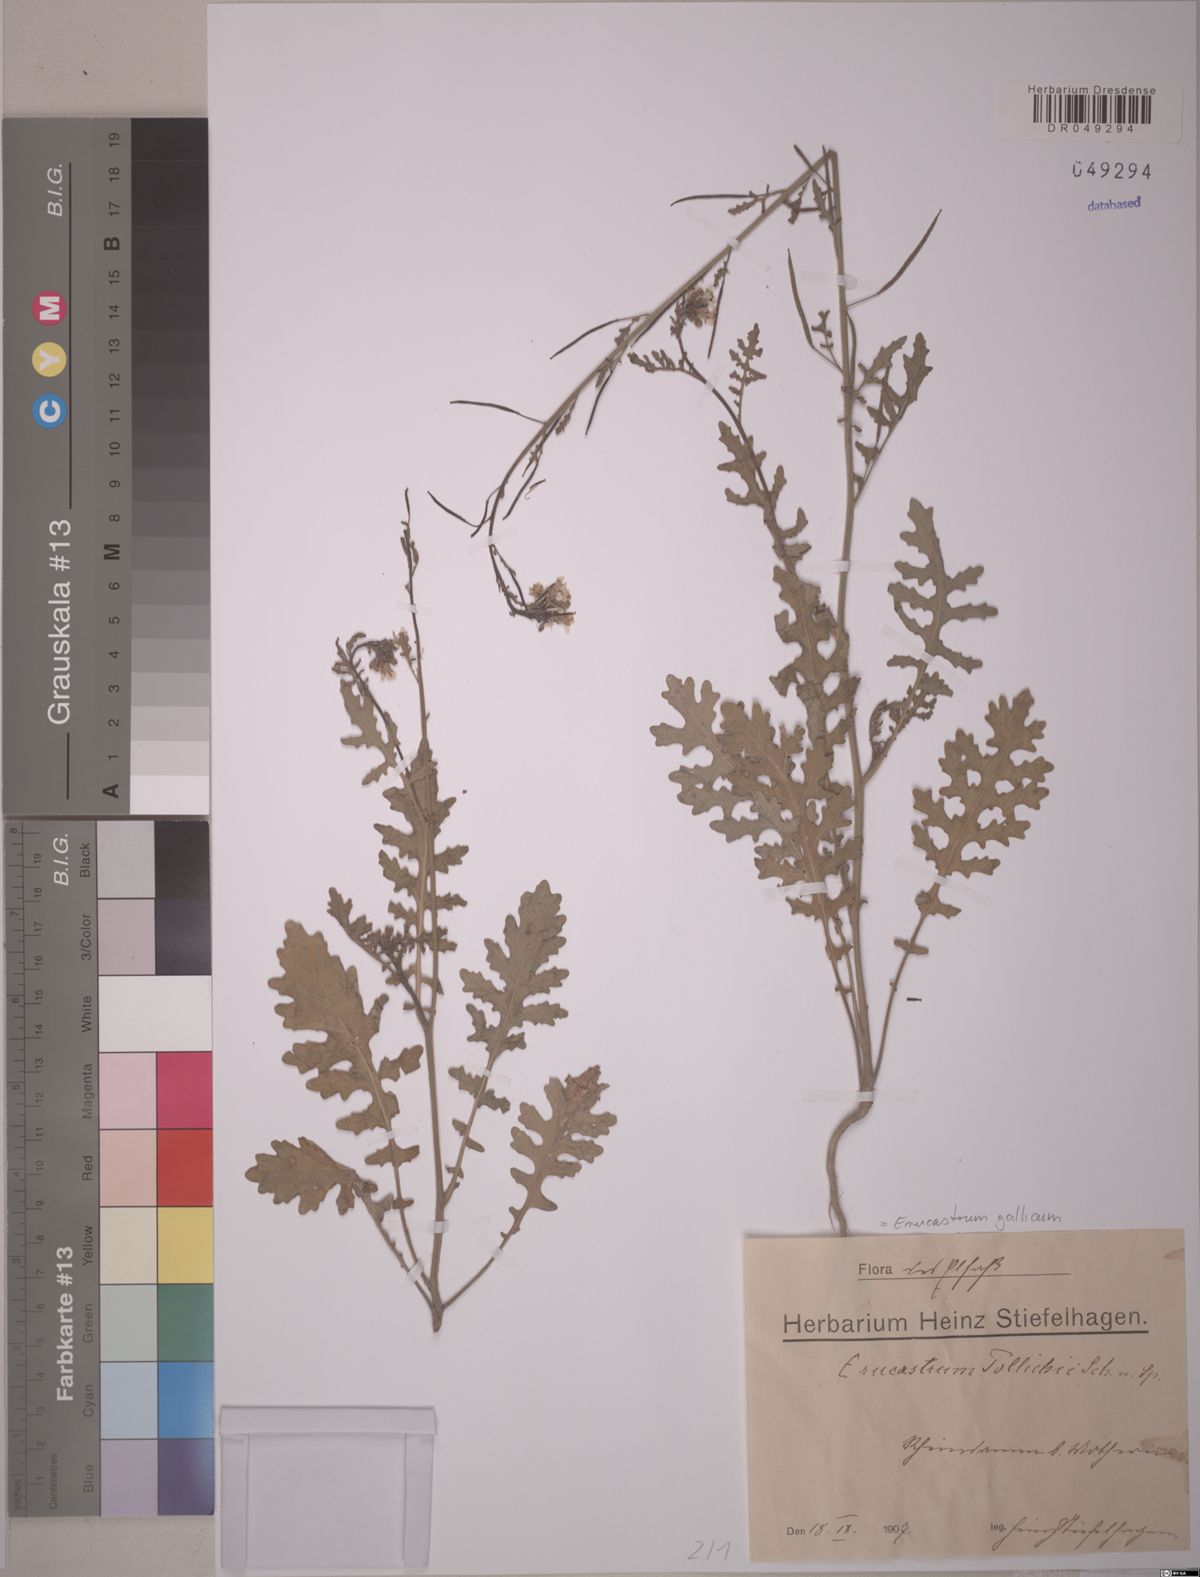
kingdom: Plantae
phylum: Tracheophyta
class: Magnoliopsida
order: Brassicales
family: Brassicaceae
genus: Erucastrum
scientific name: Erucastrum gallicum
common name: Hairy rocket
